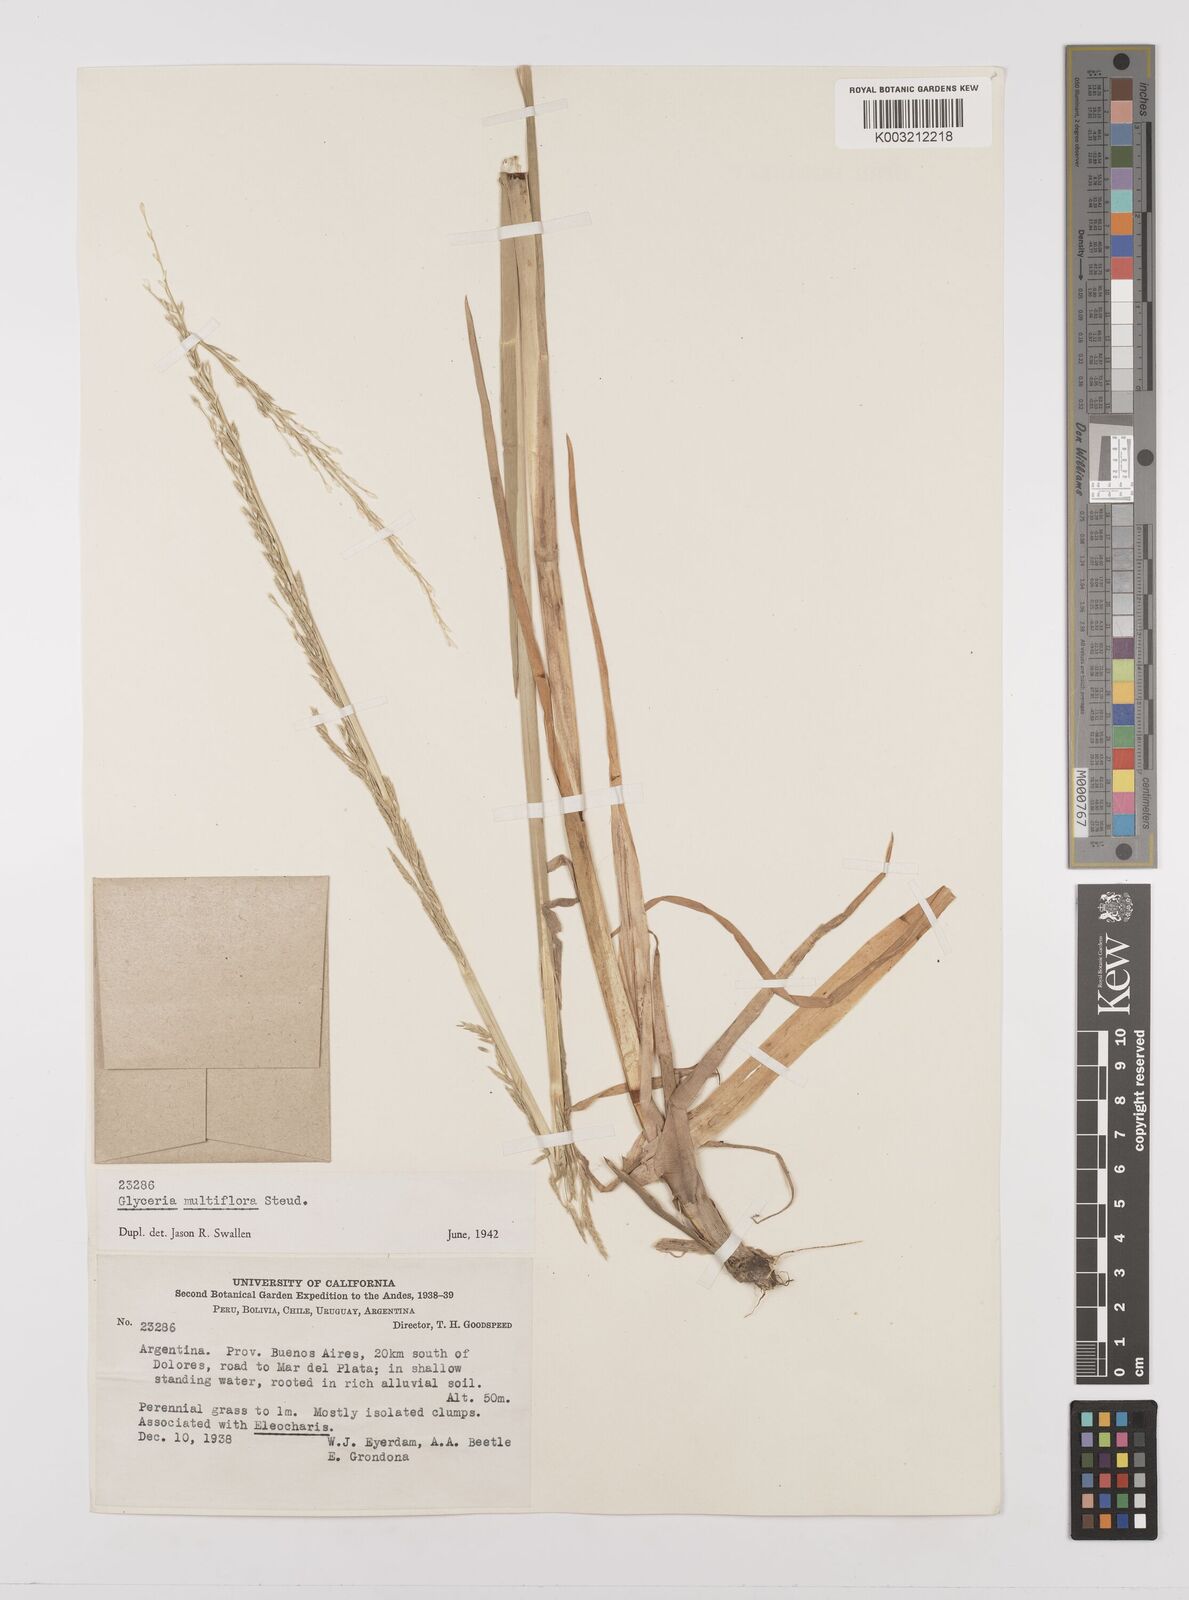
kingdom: Plantae
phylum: Tracheophyta
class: Liliopsida
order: Poales
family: Poaceae
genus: Glyceria
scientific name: Glyceria multiflora
